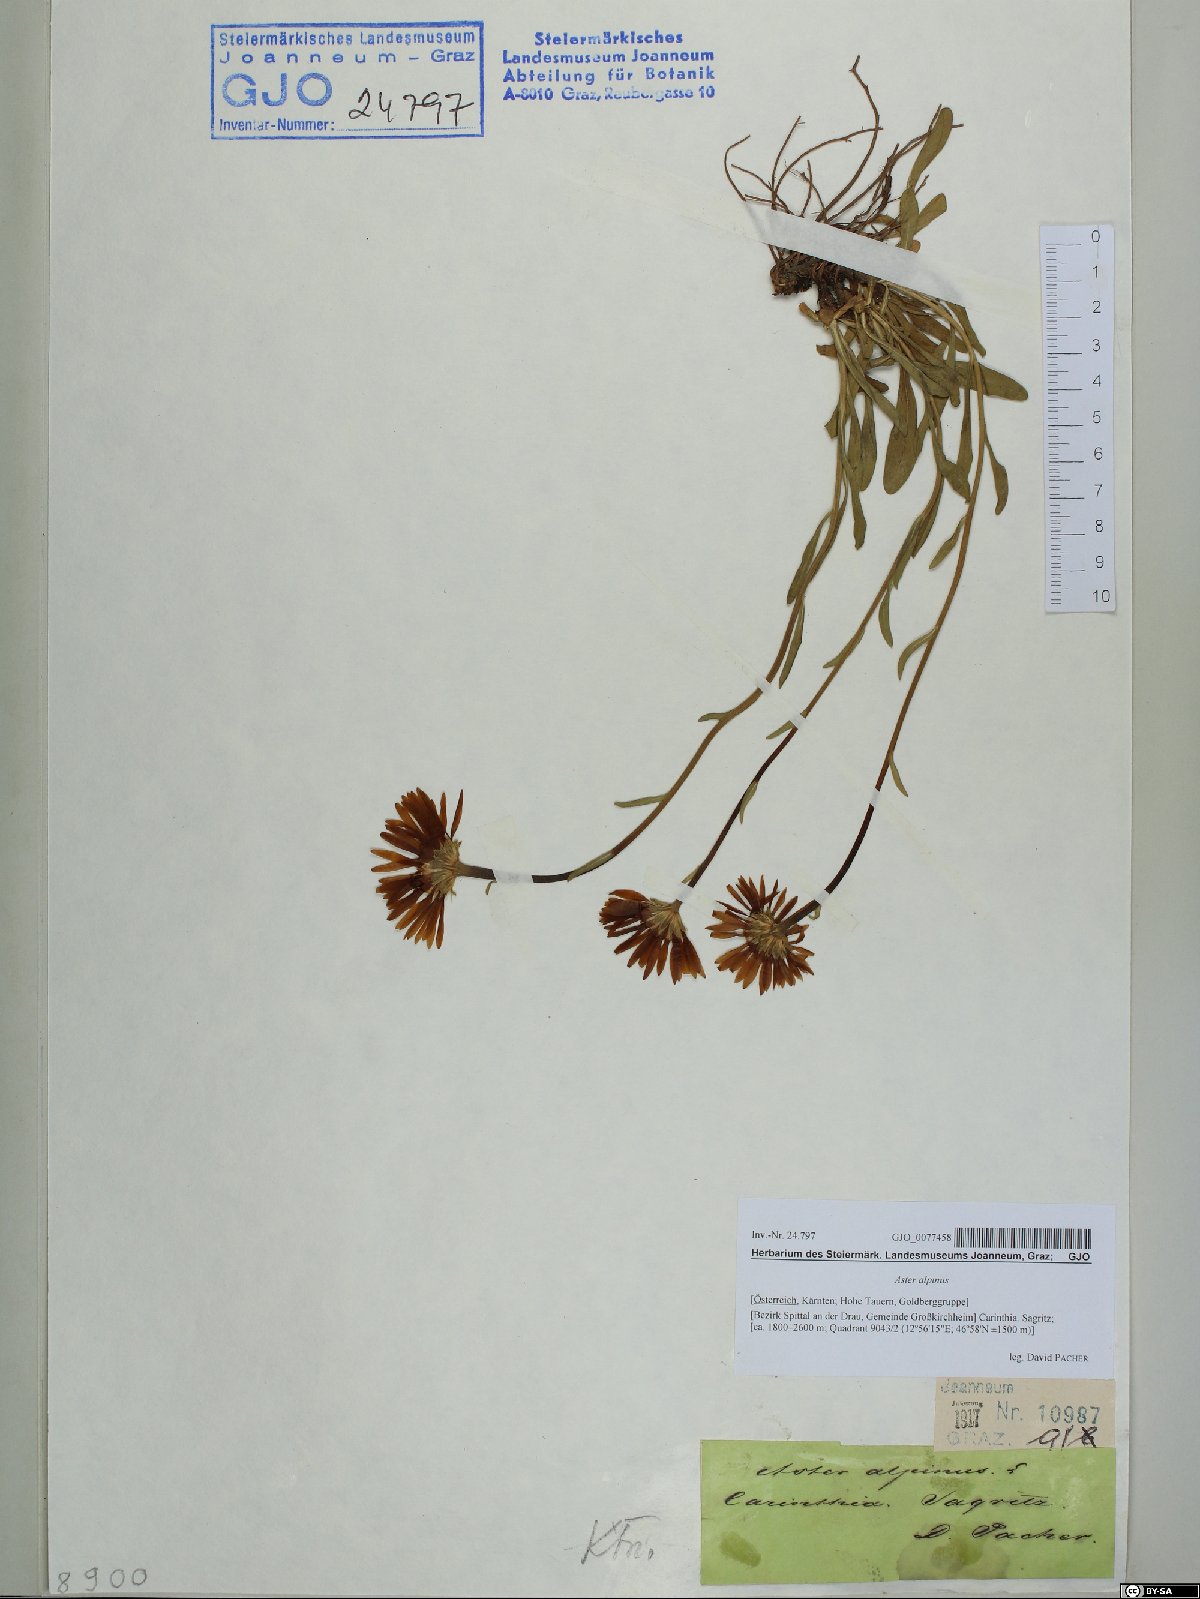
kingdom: Plantae
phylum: Tracheophyta
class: Magnoliopsida
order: Asterales
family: Asteraceae
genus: Aster
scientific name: Aster alpinus
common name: Alpine aster
